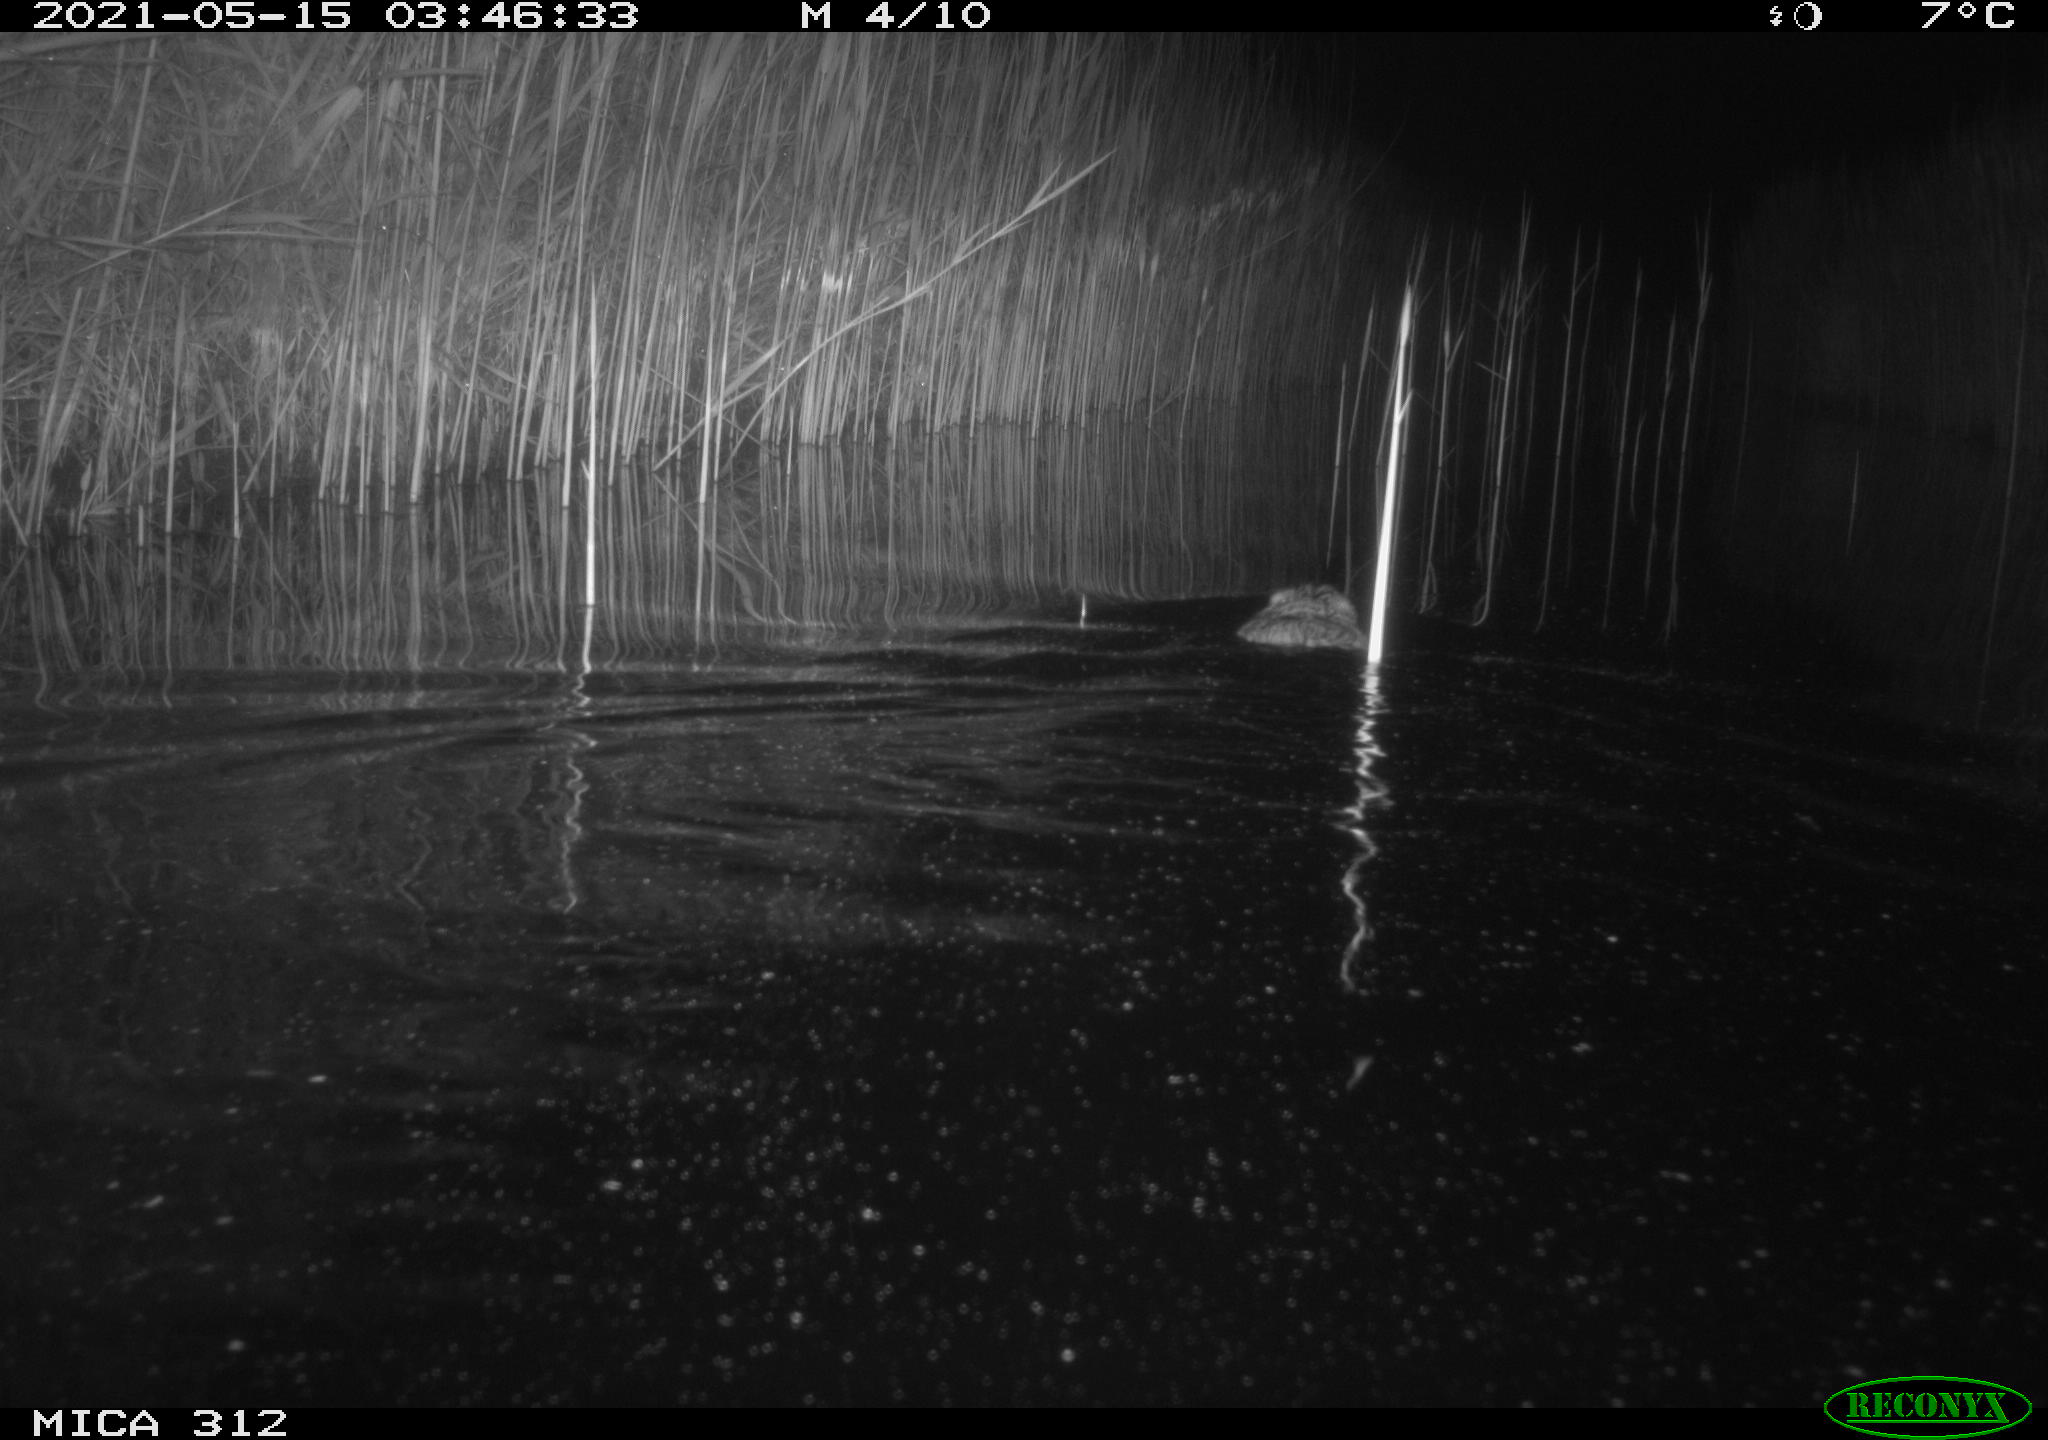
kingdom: Animalia
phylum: Chordata
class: Mammalia
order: Rodentia
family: Cricetidae
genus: Ondatra
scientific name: Ondatra zibethicus
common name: Muskrat
